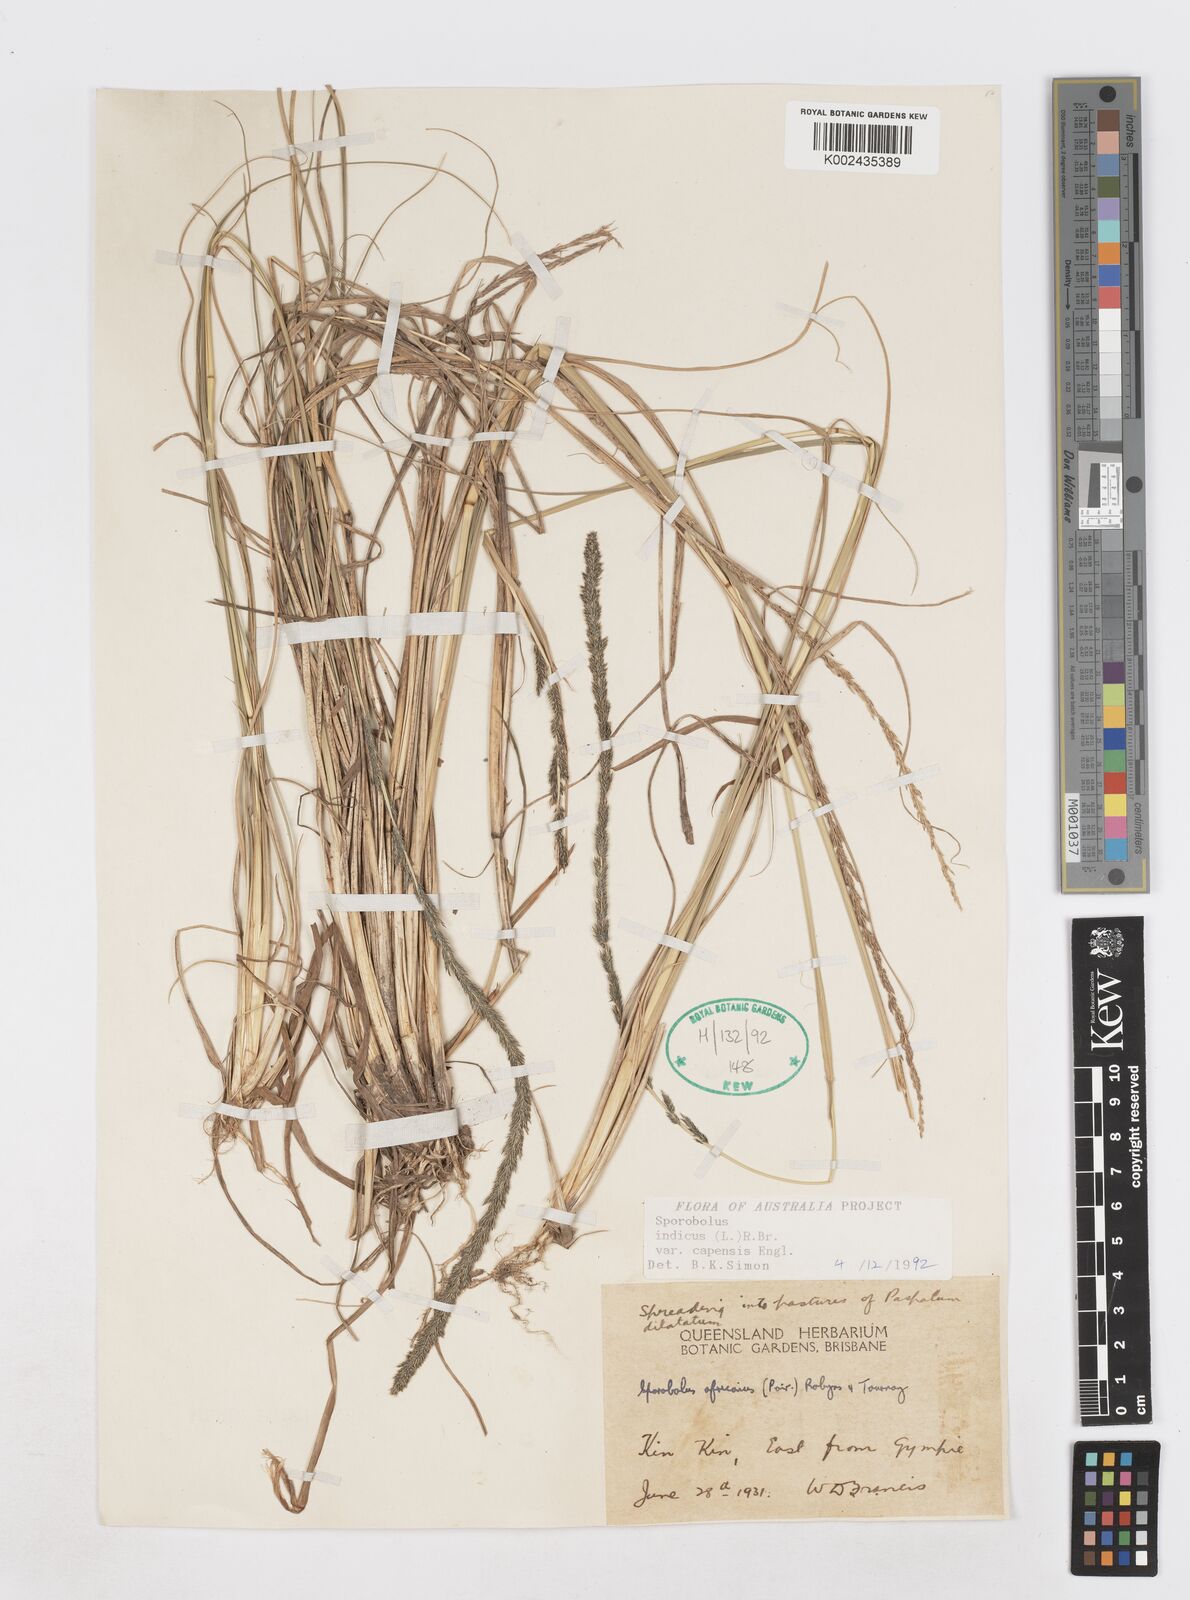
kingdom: Plantae
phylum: Tracheophyta
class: Liliopsida
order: Poales
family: Poaceae
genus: Sporobolus
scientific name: Sporobolus africanus
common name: African dropseed
